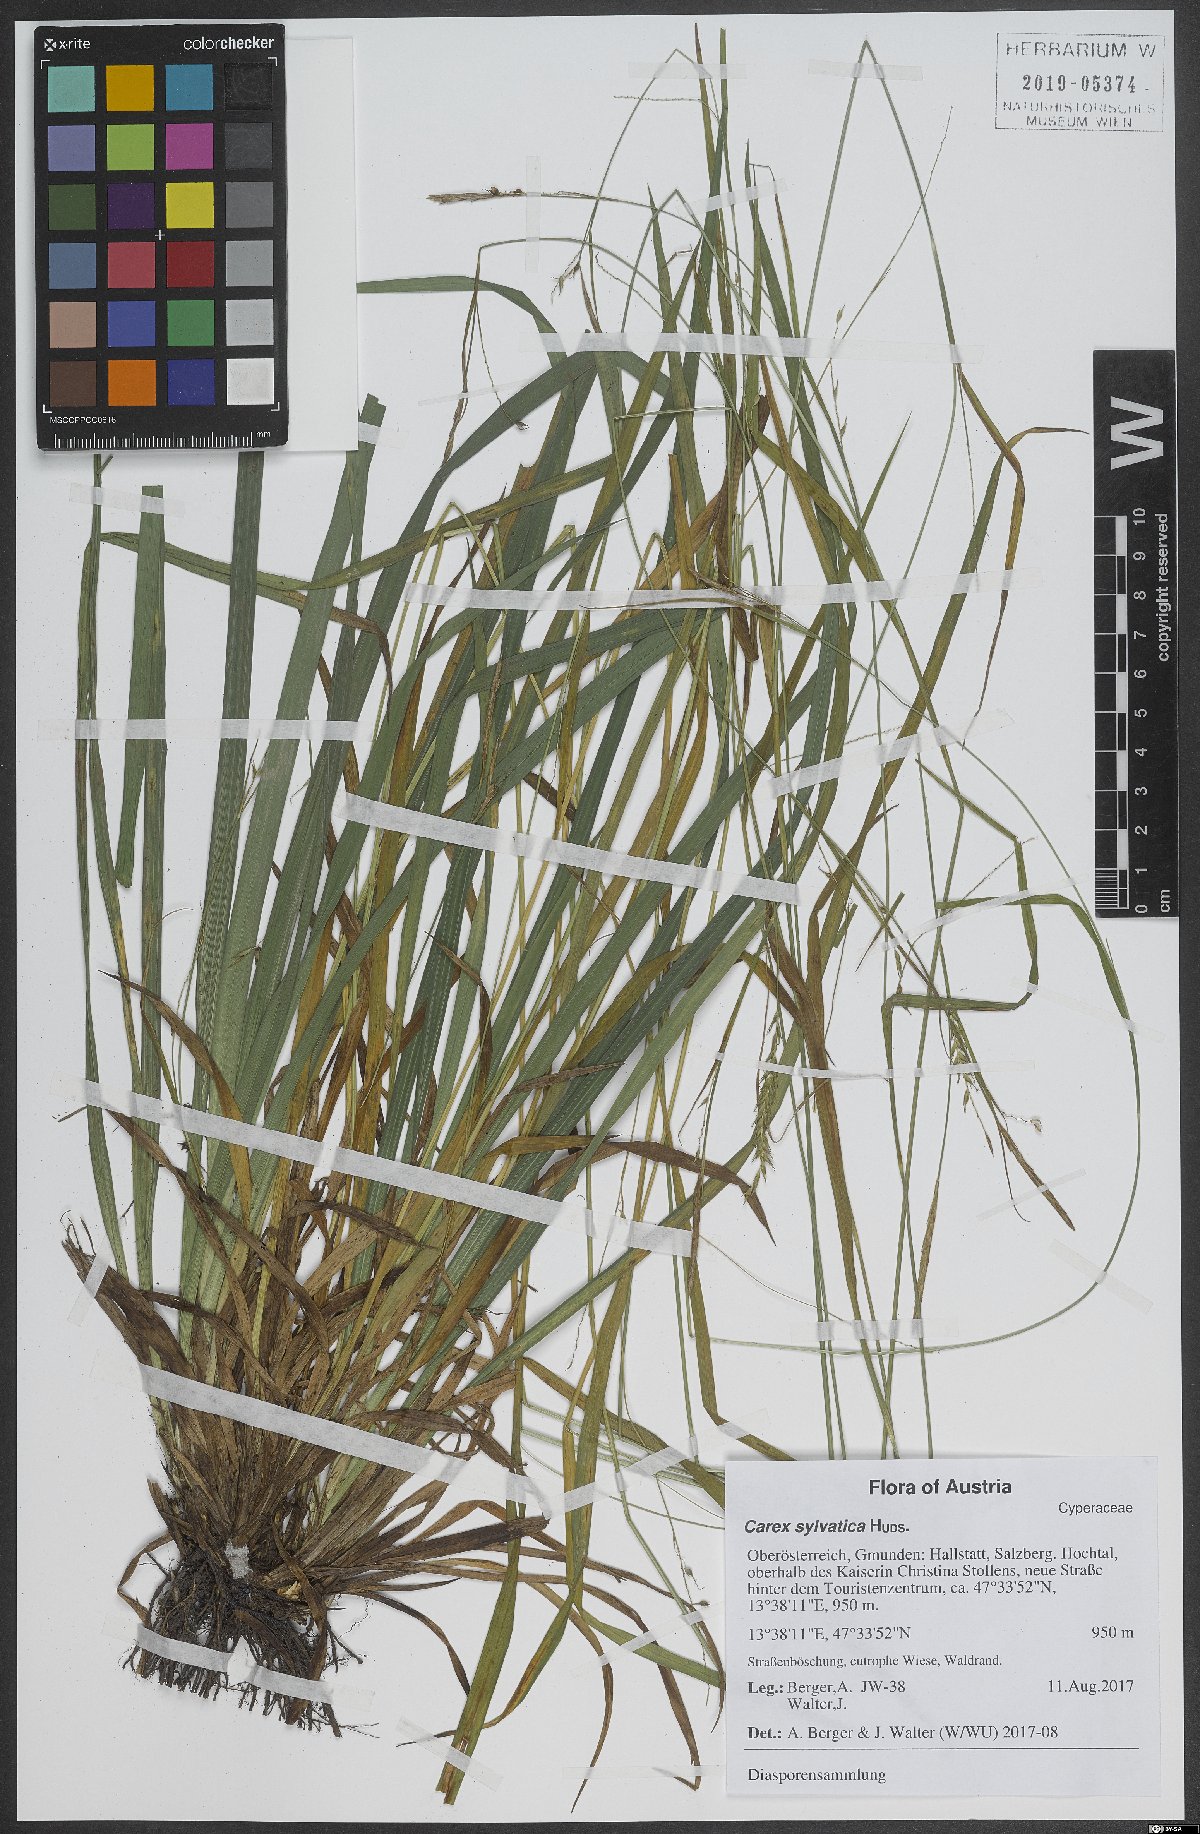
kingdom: Plantae
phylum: Tracheophyta
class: Liliopsida
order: Poales
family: Cyperaceae
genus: Carex
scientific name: Carex sylvatica
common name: Wood-sedge
